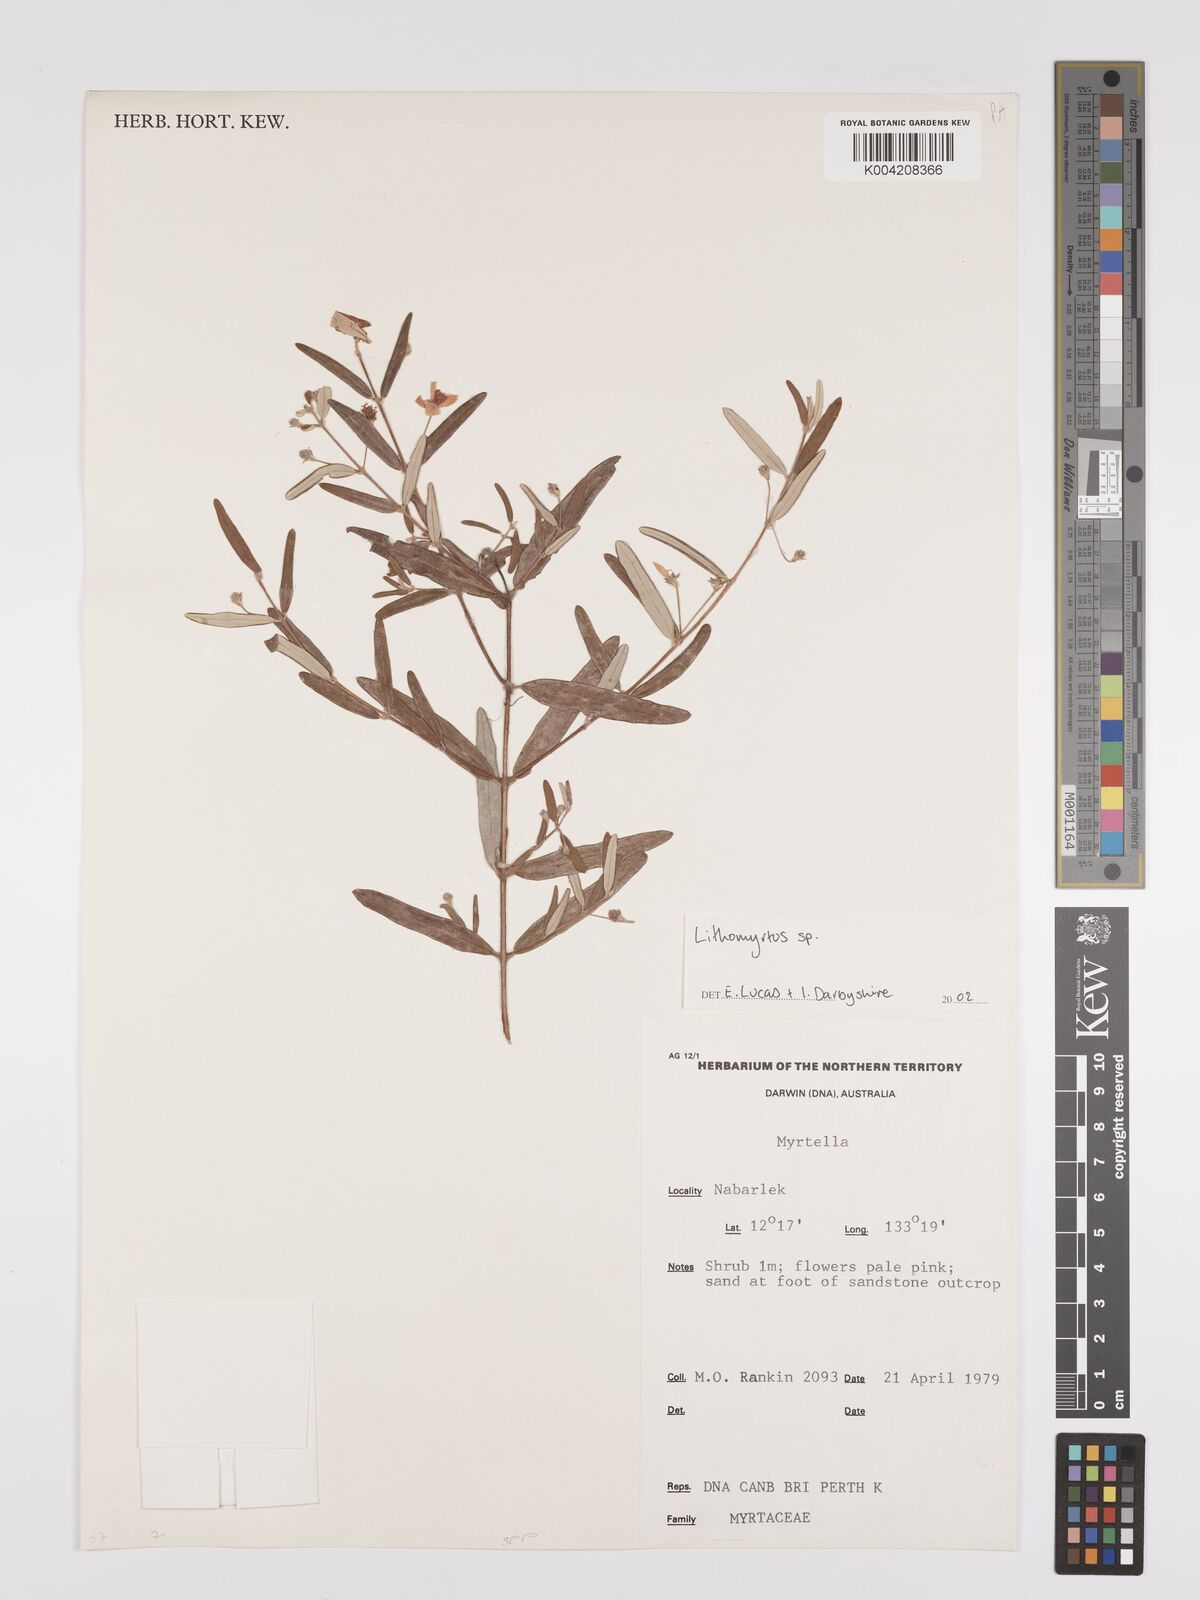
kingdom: Plantae
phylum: Tracheophyta
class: Magnoliopsida
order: Myrtales
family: Myrtaceae
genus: Lithomyrtus
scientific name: Lithomyrtus
